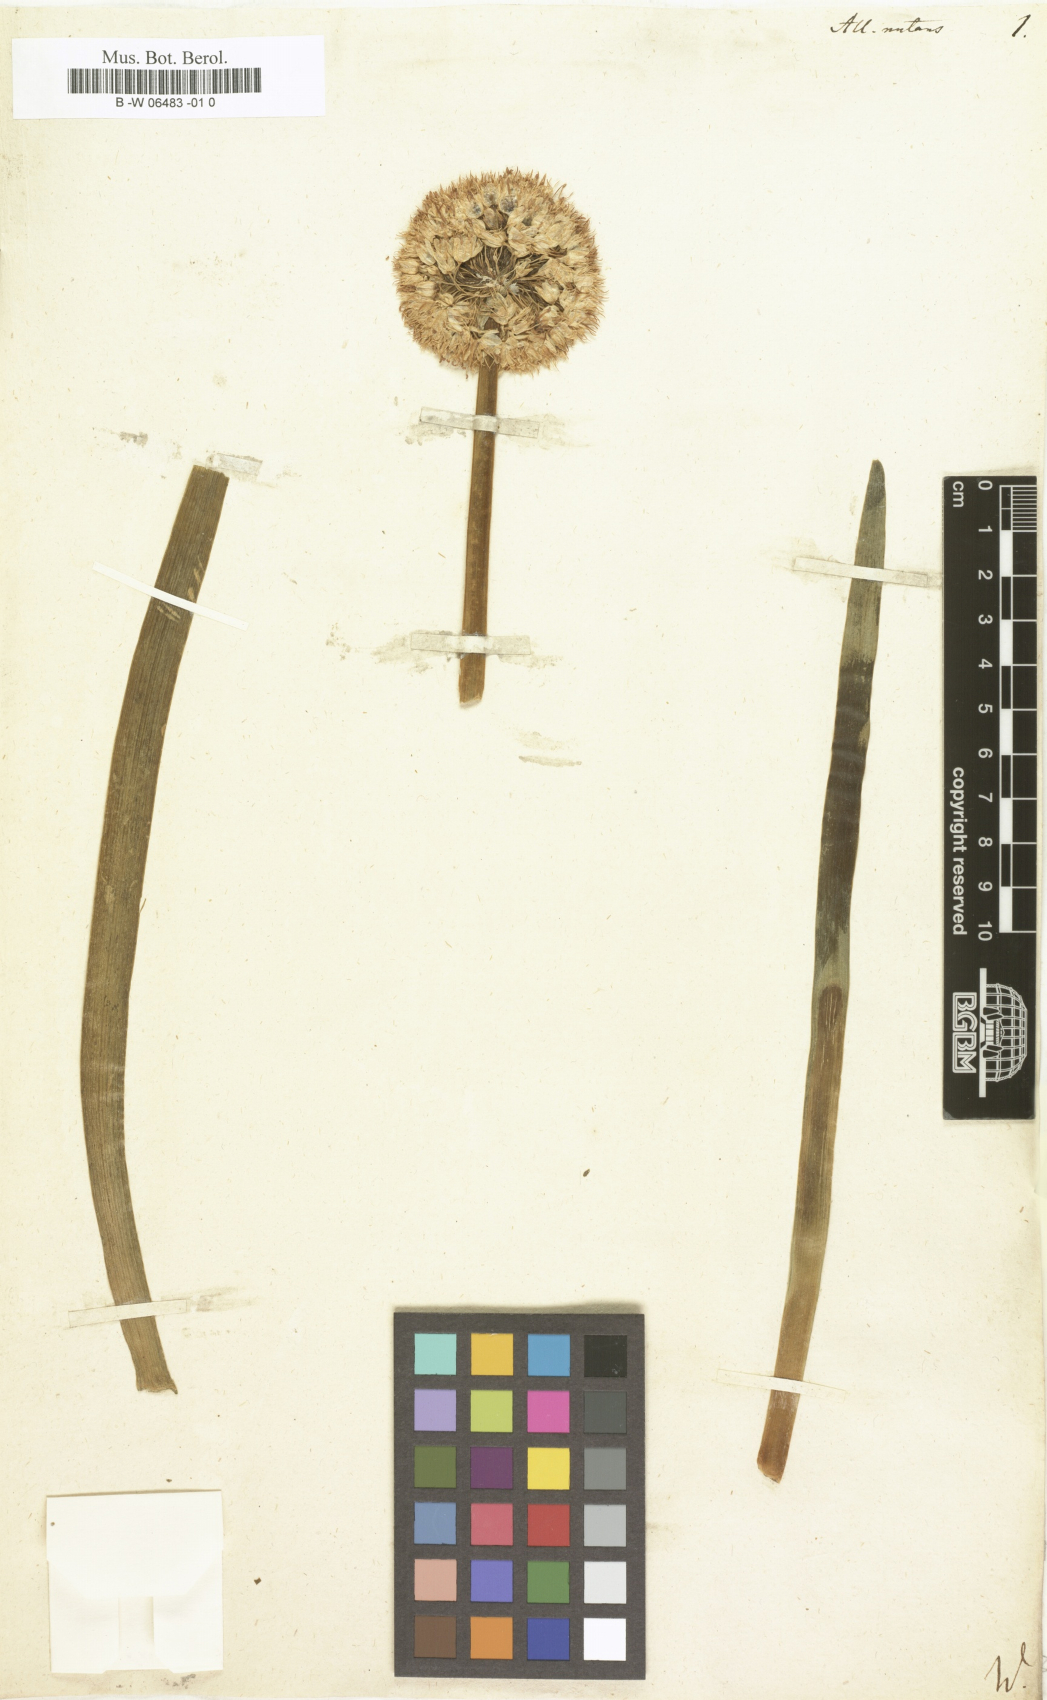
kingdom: Plantae
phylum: Tracheophyta
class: Liliopsida
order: Asparagales
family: Amaryllidaceae
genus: Allium
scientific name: Allium nutans
